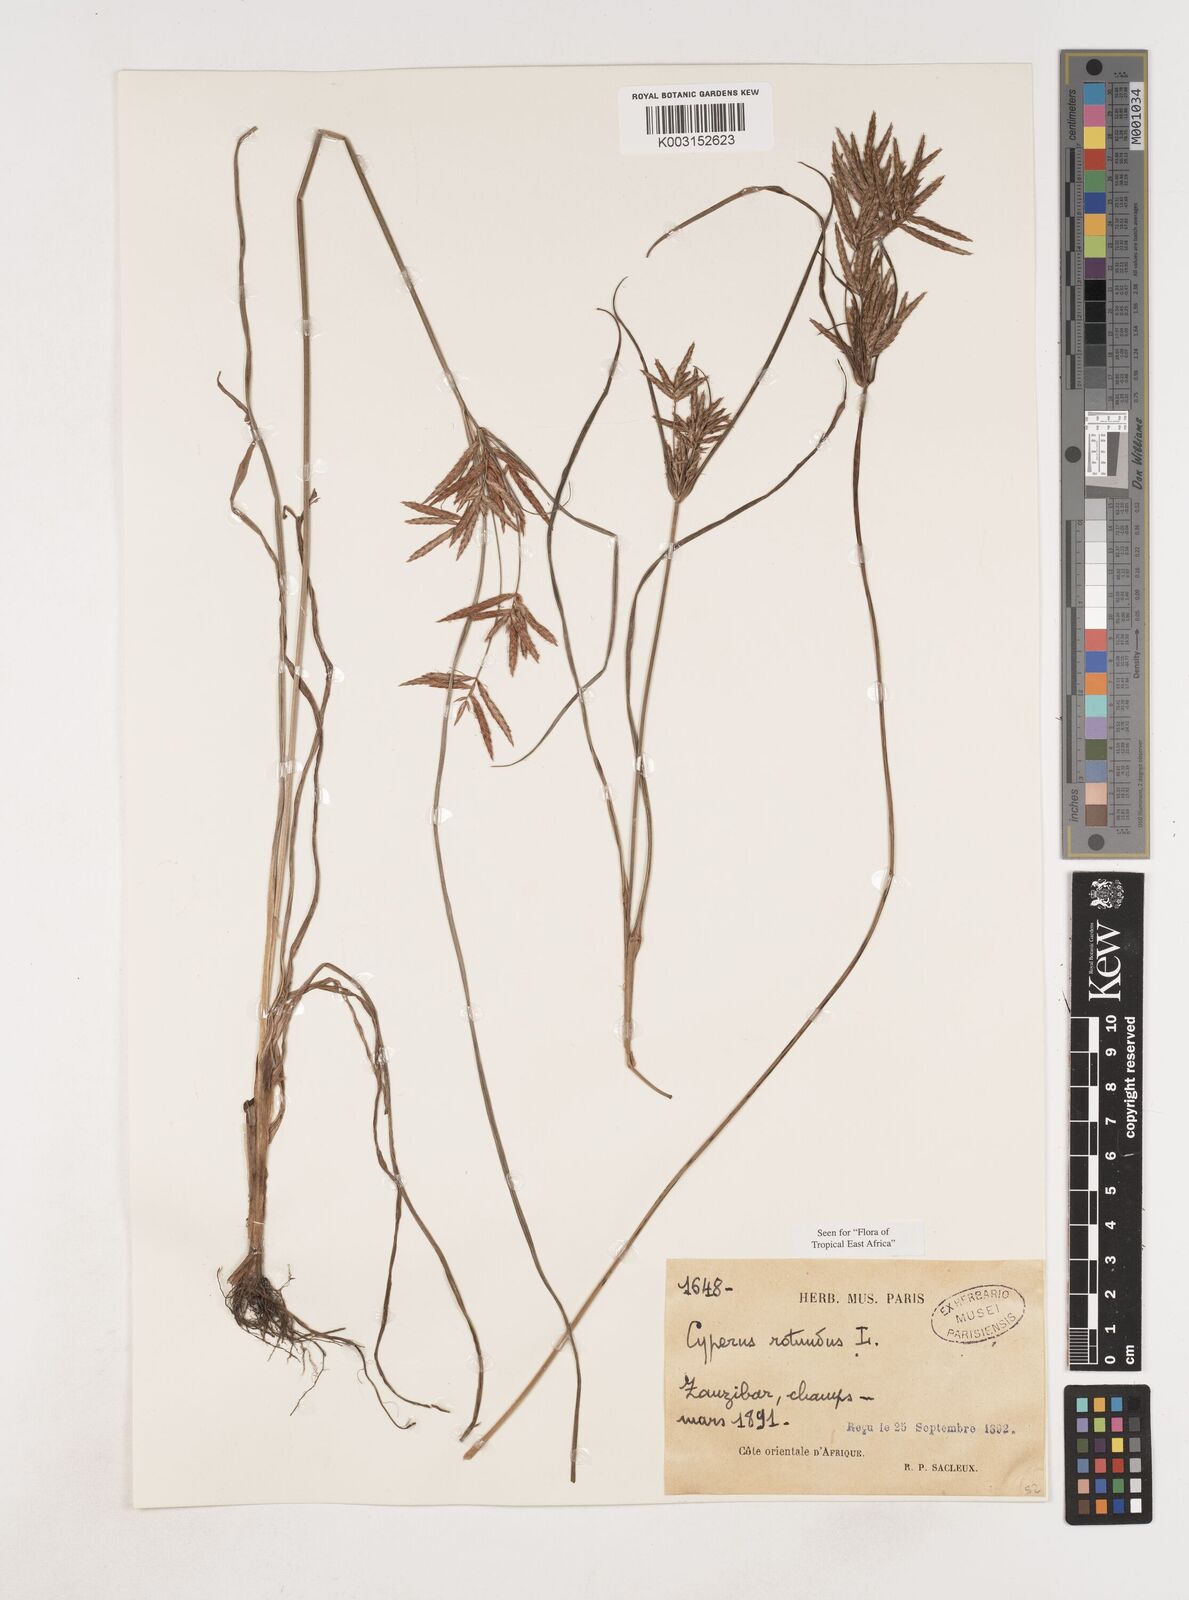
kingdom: Plantae
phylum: Tracheophyta
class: Liliopsida
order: Poales
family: Cyperaceae
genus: Cyperus
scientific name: Cyperus rotundus
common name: Nutgrass
